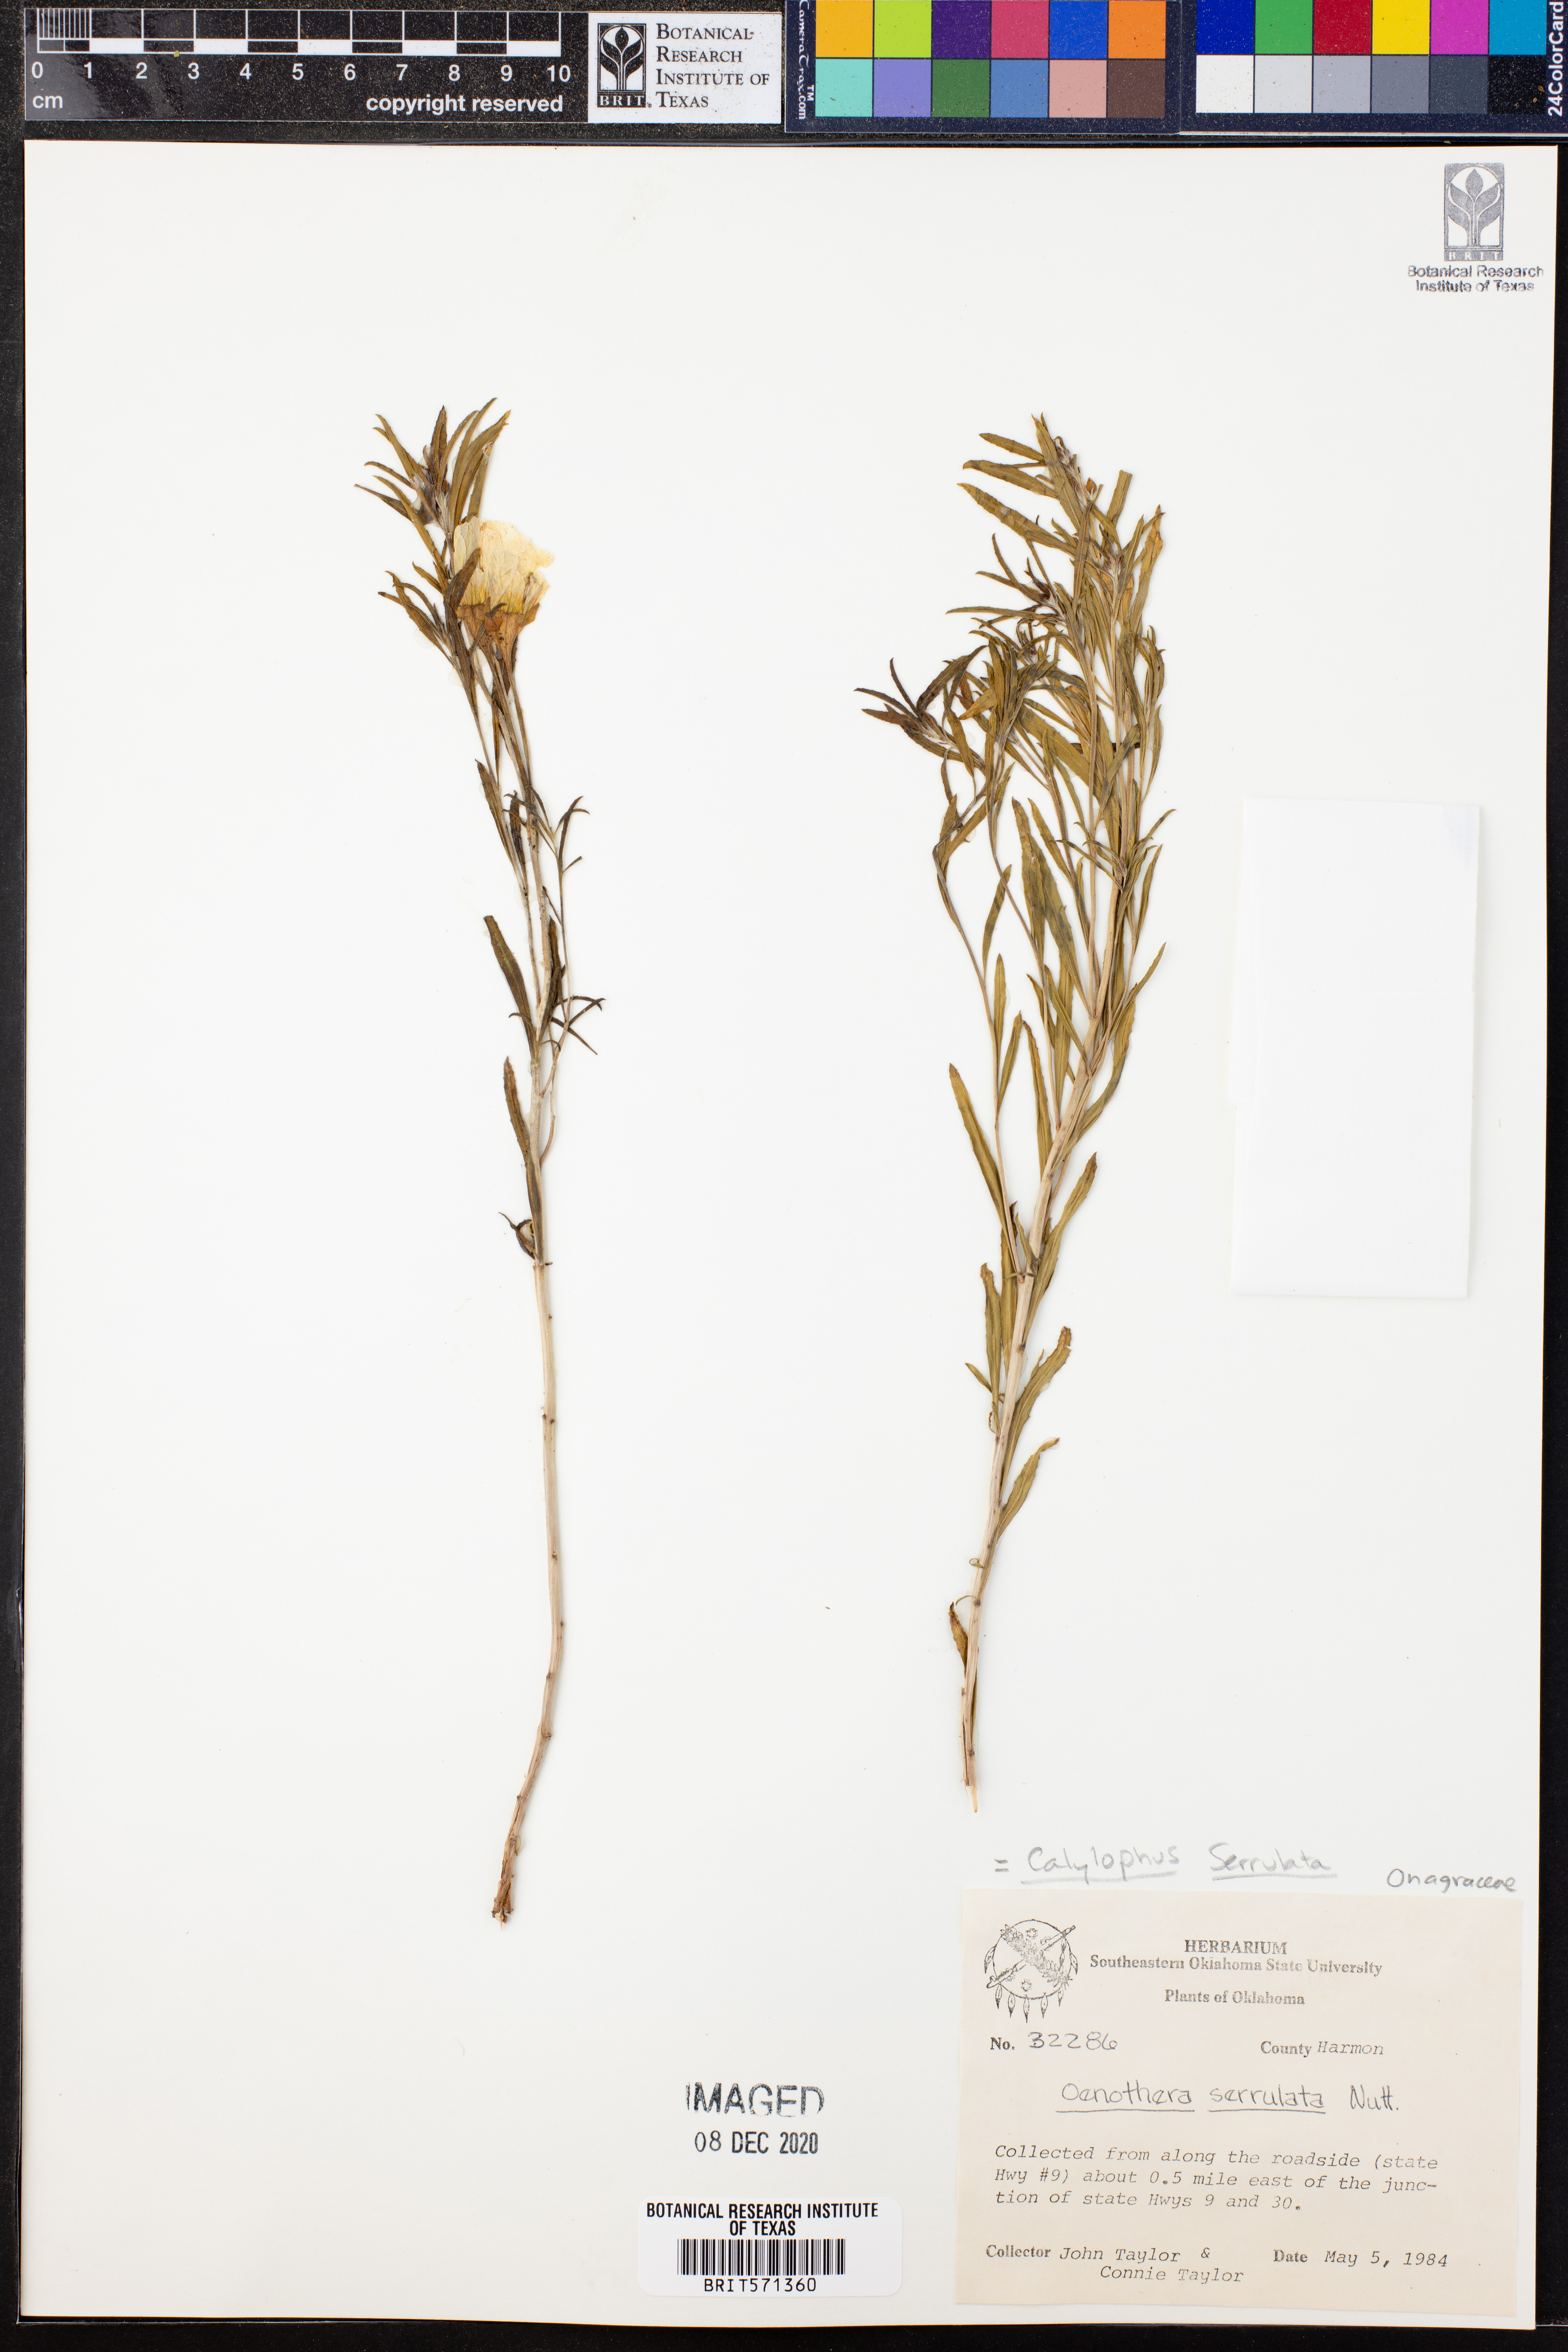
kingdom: Plantae
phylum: Tracheophyta
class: Magnoliopsida
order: Myrtales
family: Onagraceae
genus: Oenothera
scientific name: Oenothera serrulata
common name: Half-shrub calylophus
